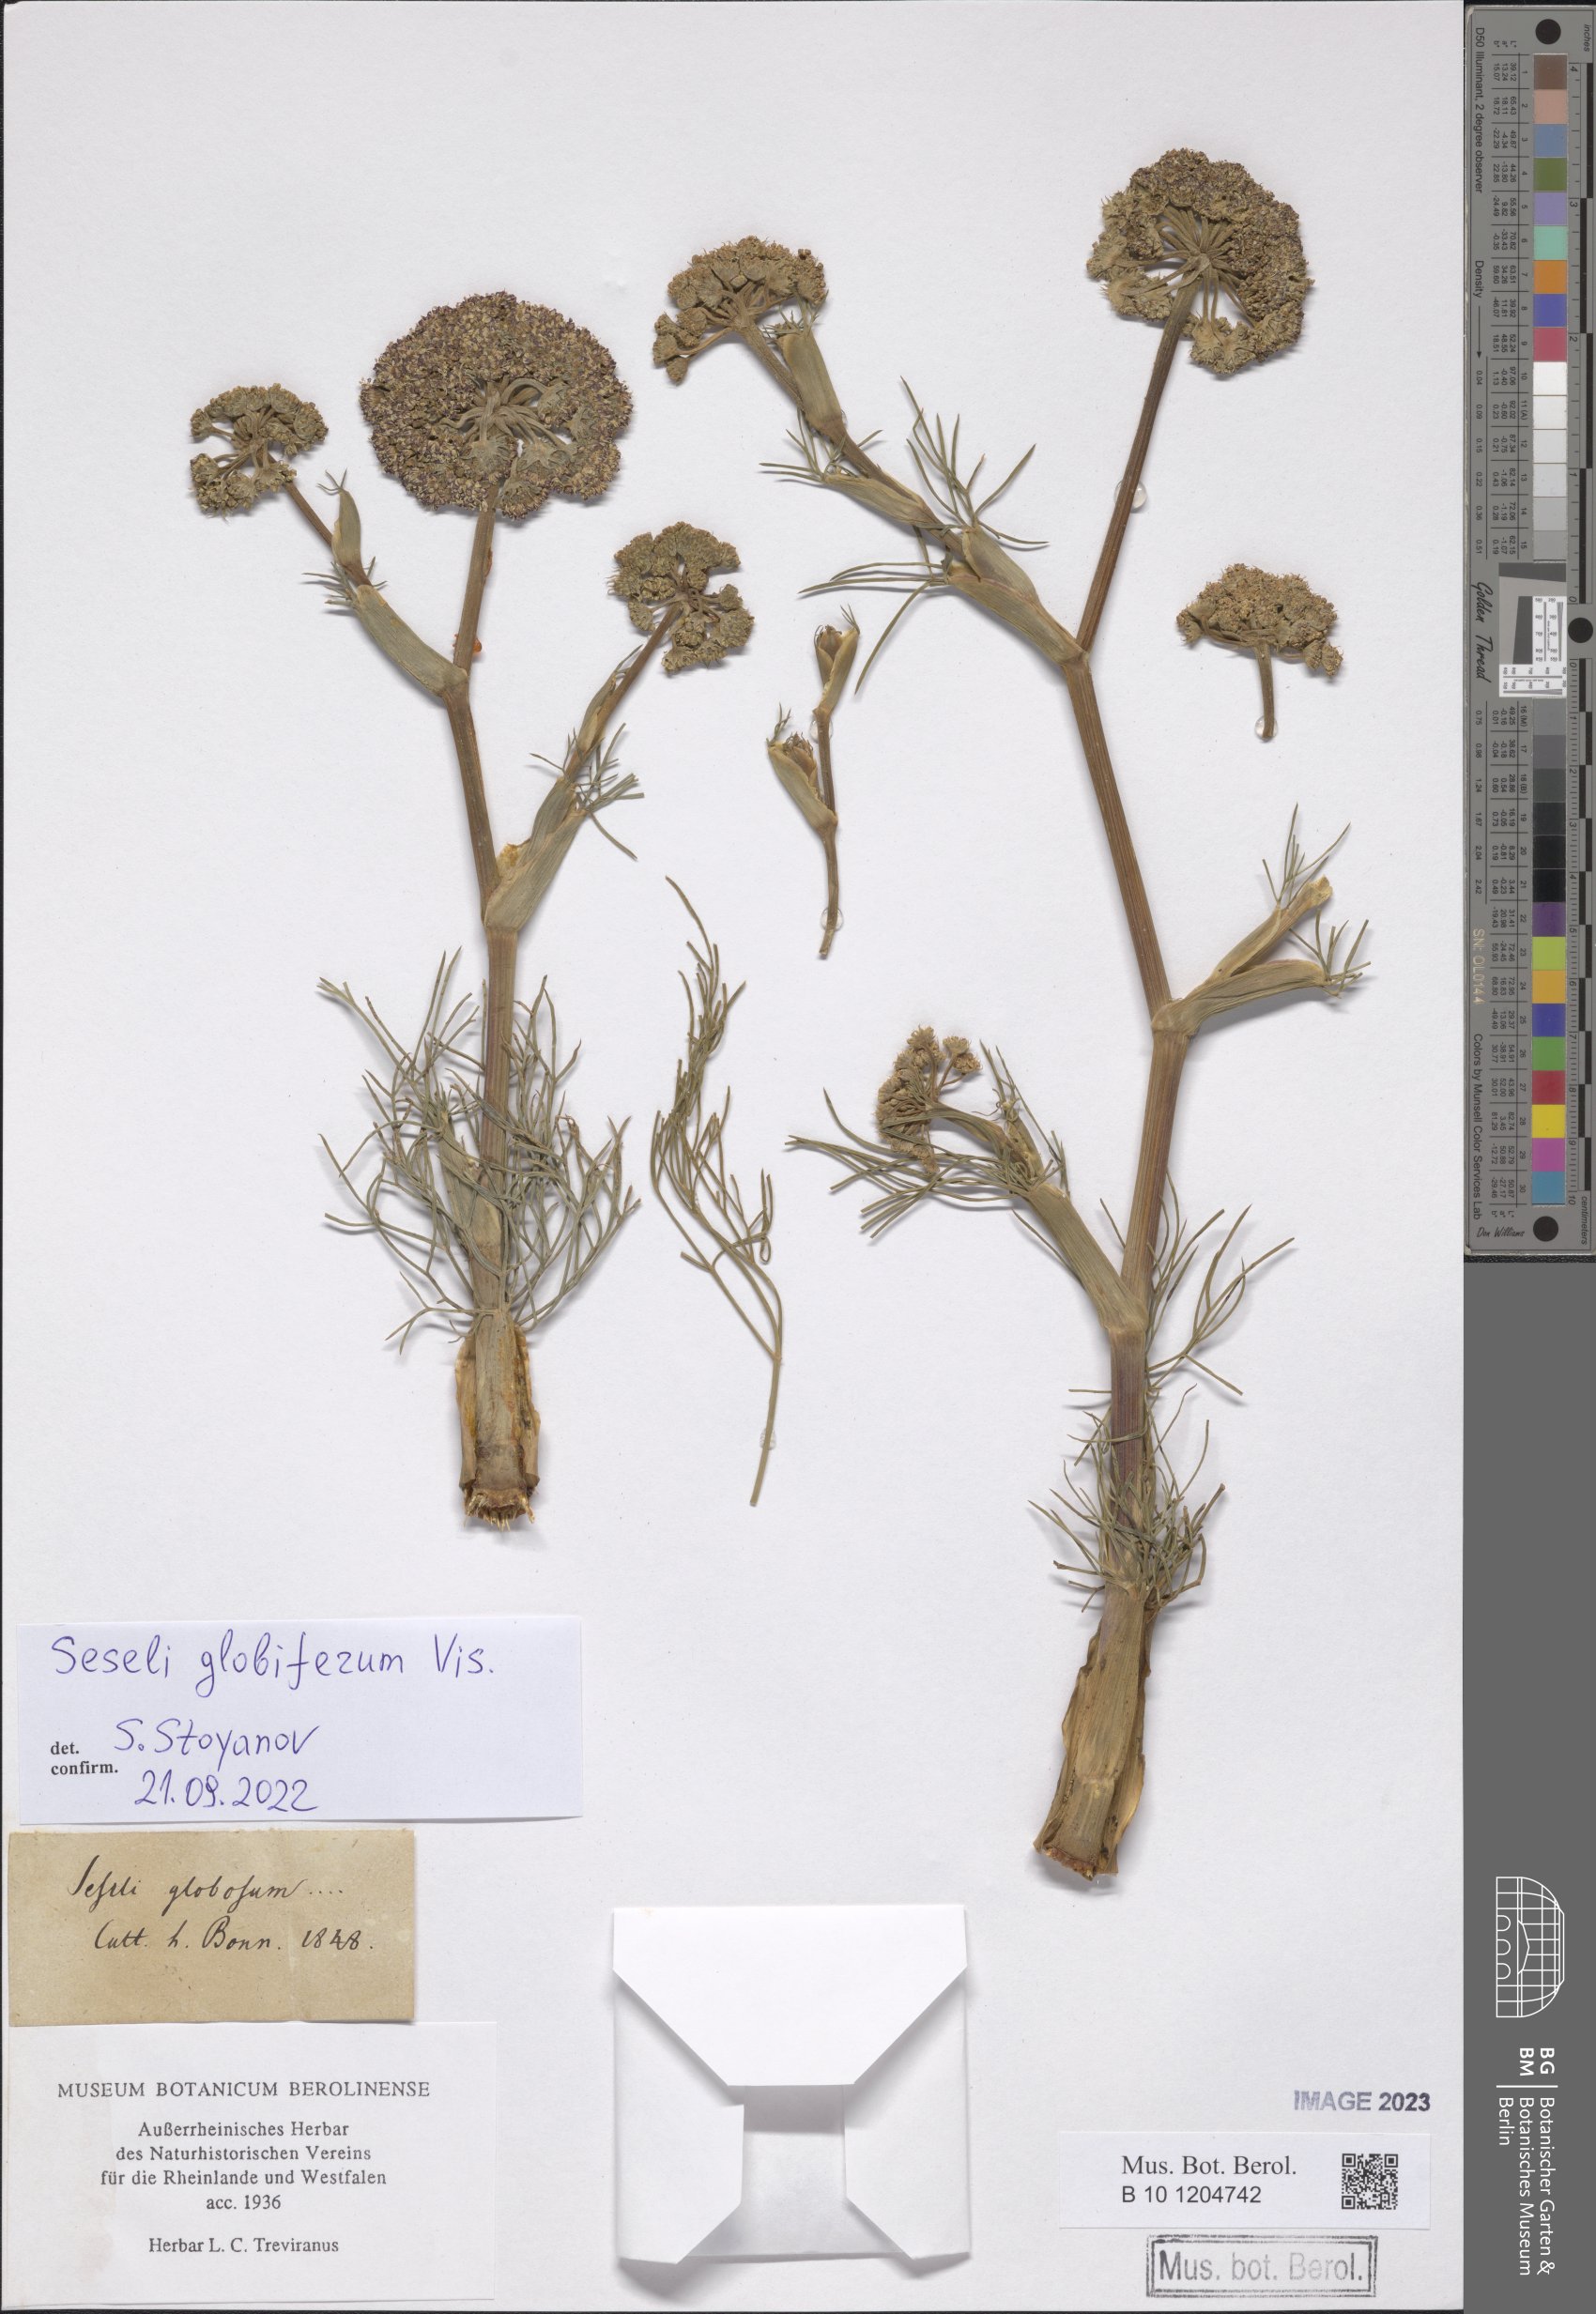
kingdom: Plantae
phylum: Tracheophyta
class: Magnoliopsida
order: Apiales
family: Apiaceae
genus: Seseli
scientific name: Seseli globiferum
